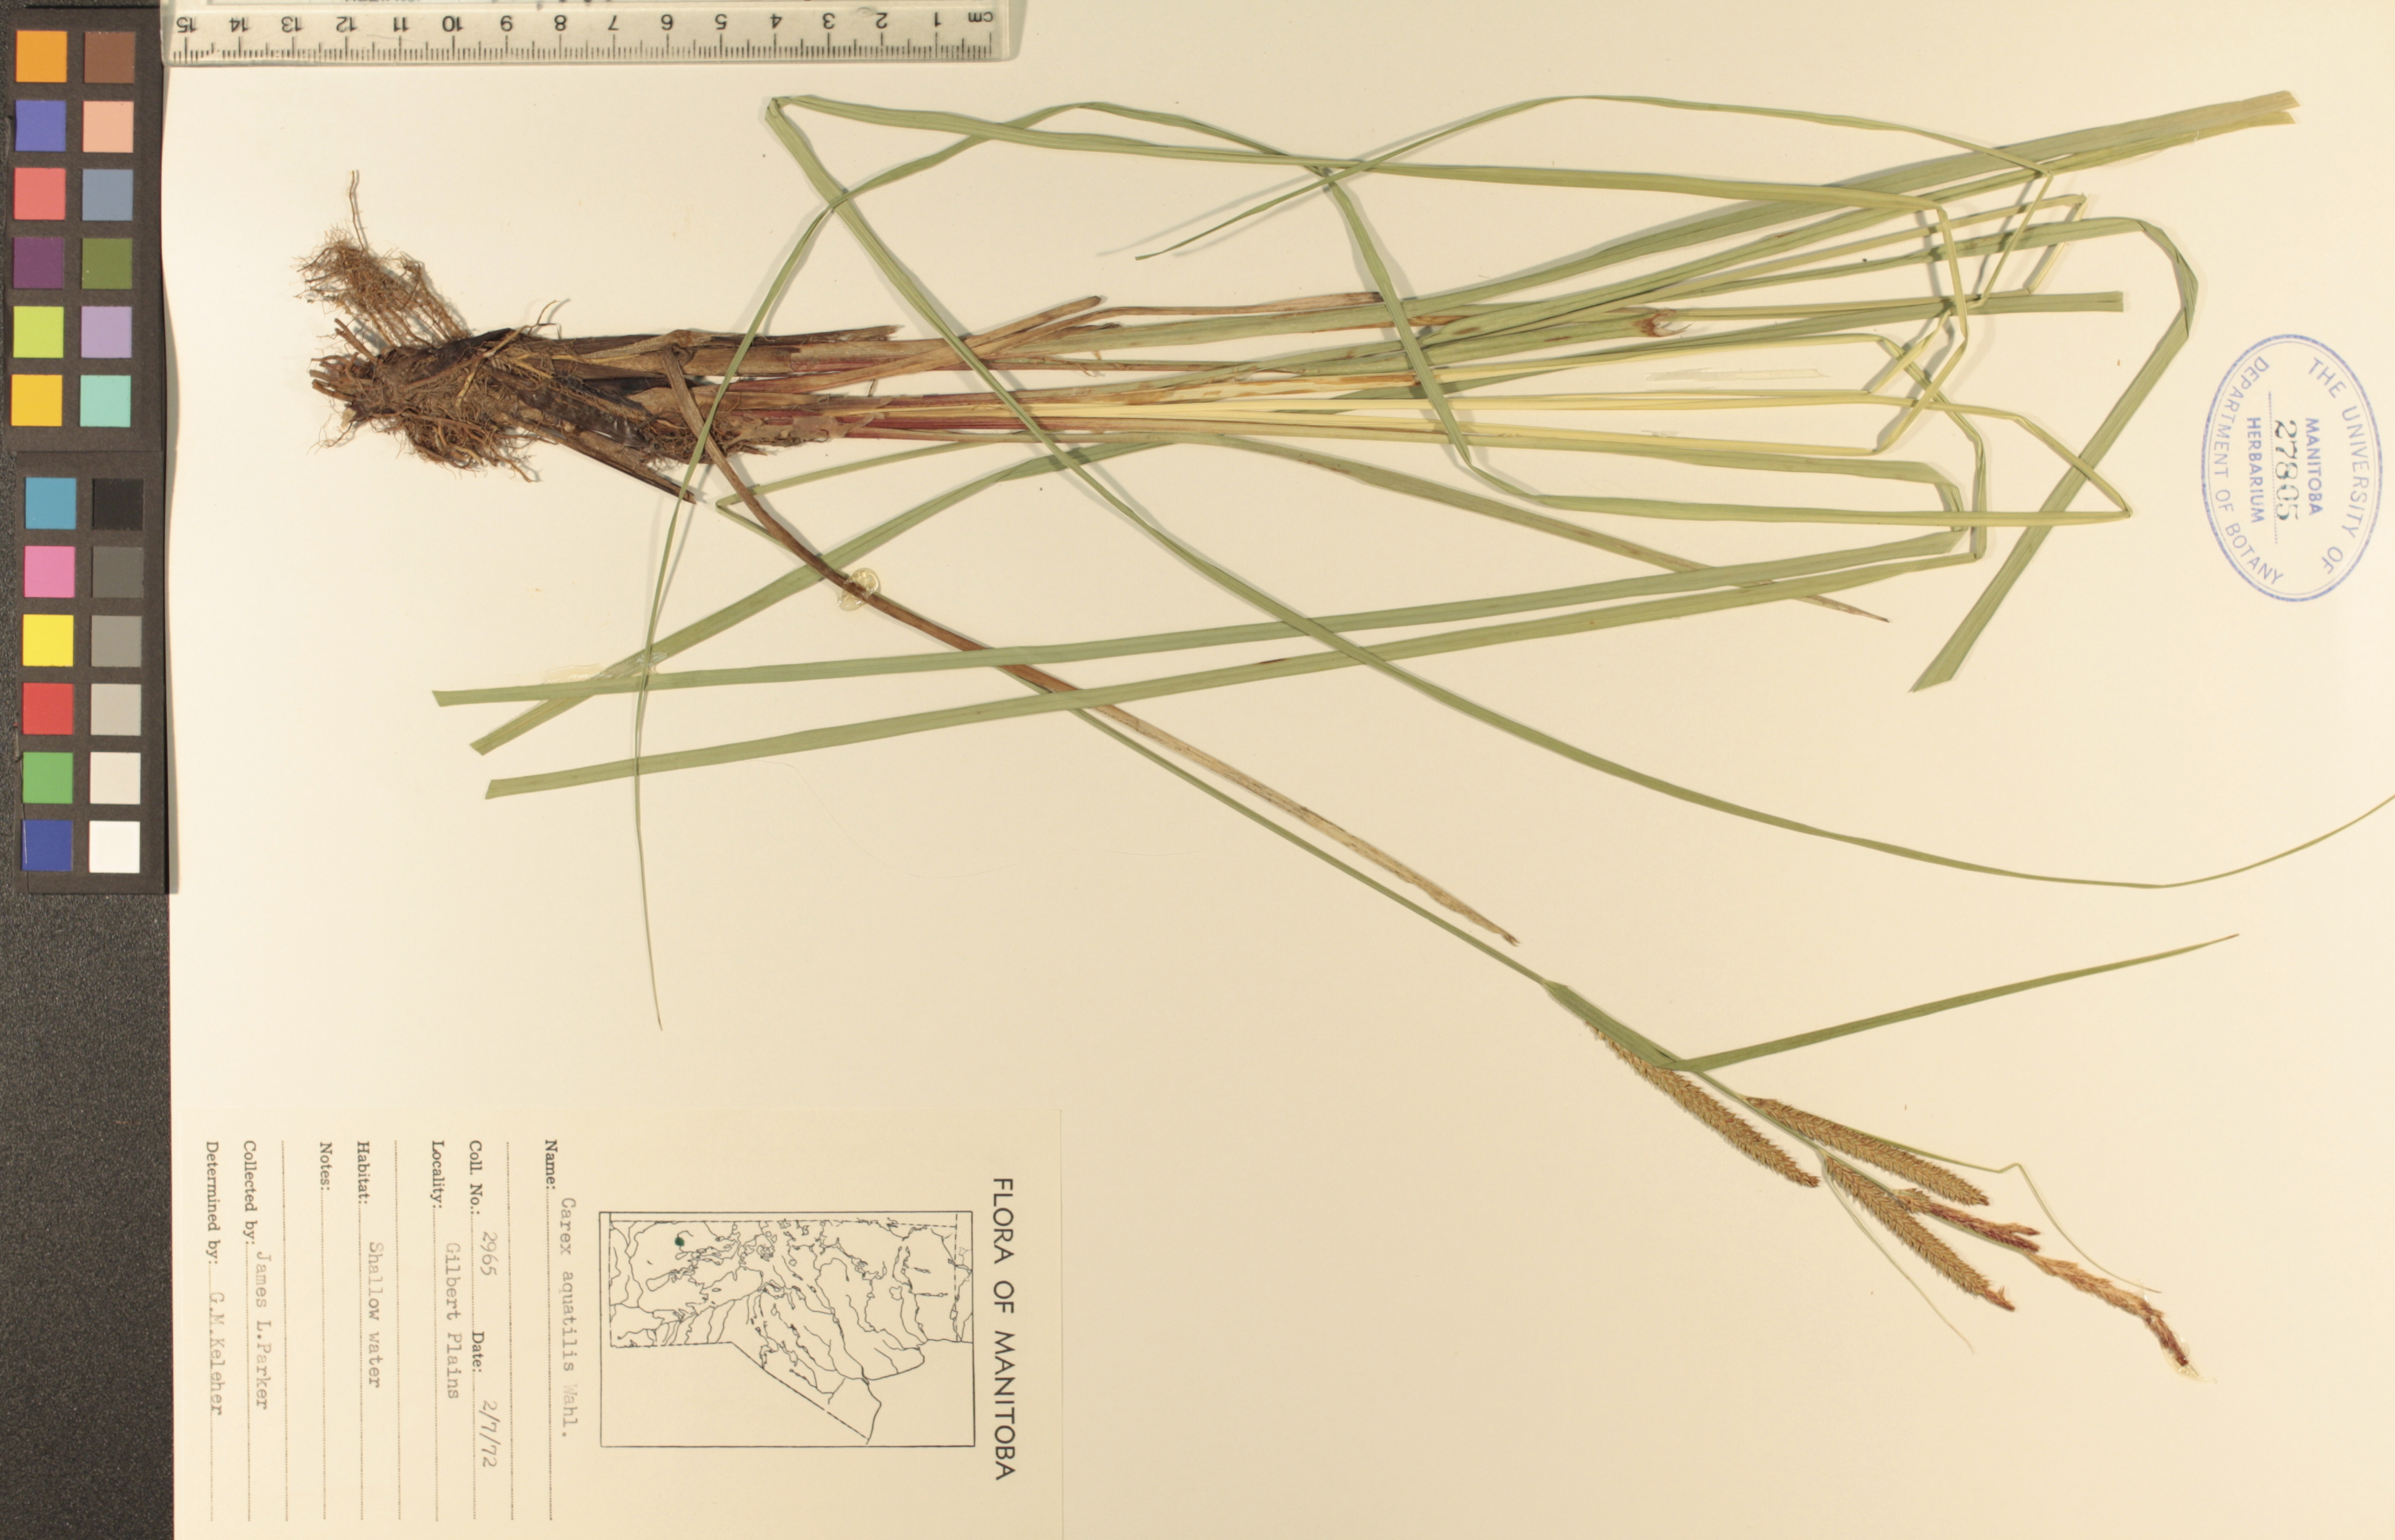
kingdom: Plantae
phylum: Tracheophyta
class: Liliopsida
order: Poales
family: Cyperaceae
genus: Carex
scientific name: Carex aquatilis
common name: Water sedge
